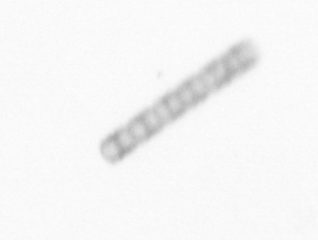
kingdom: Chromista
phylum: Ochrophyta
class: Bacillariophyceae
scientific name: Bacillariophyceae
